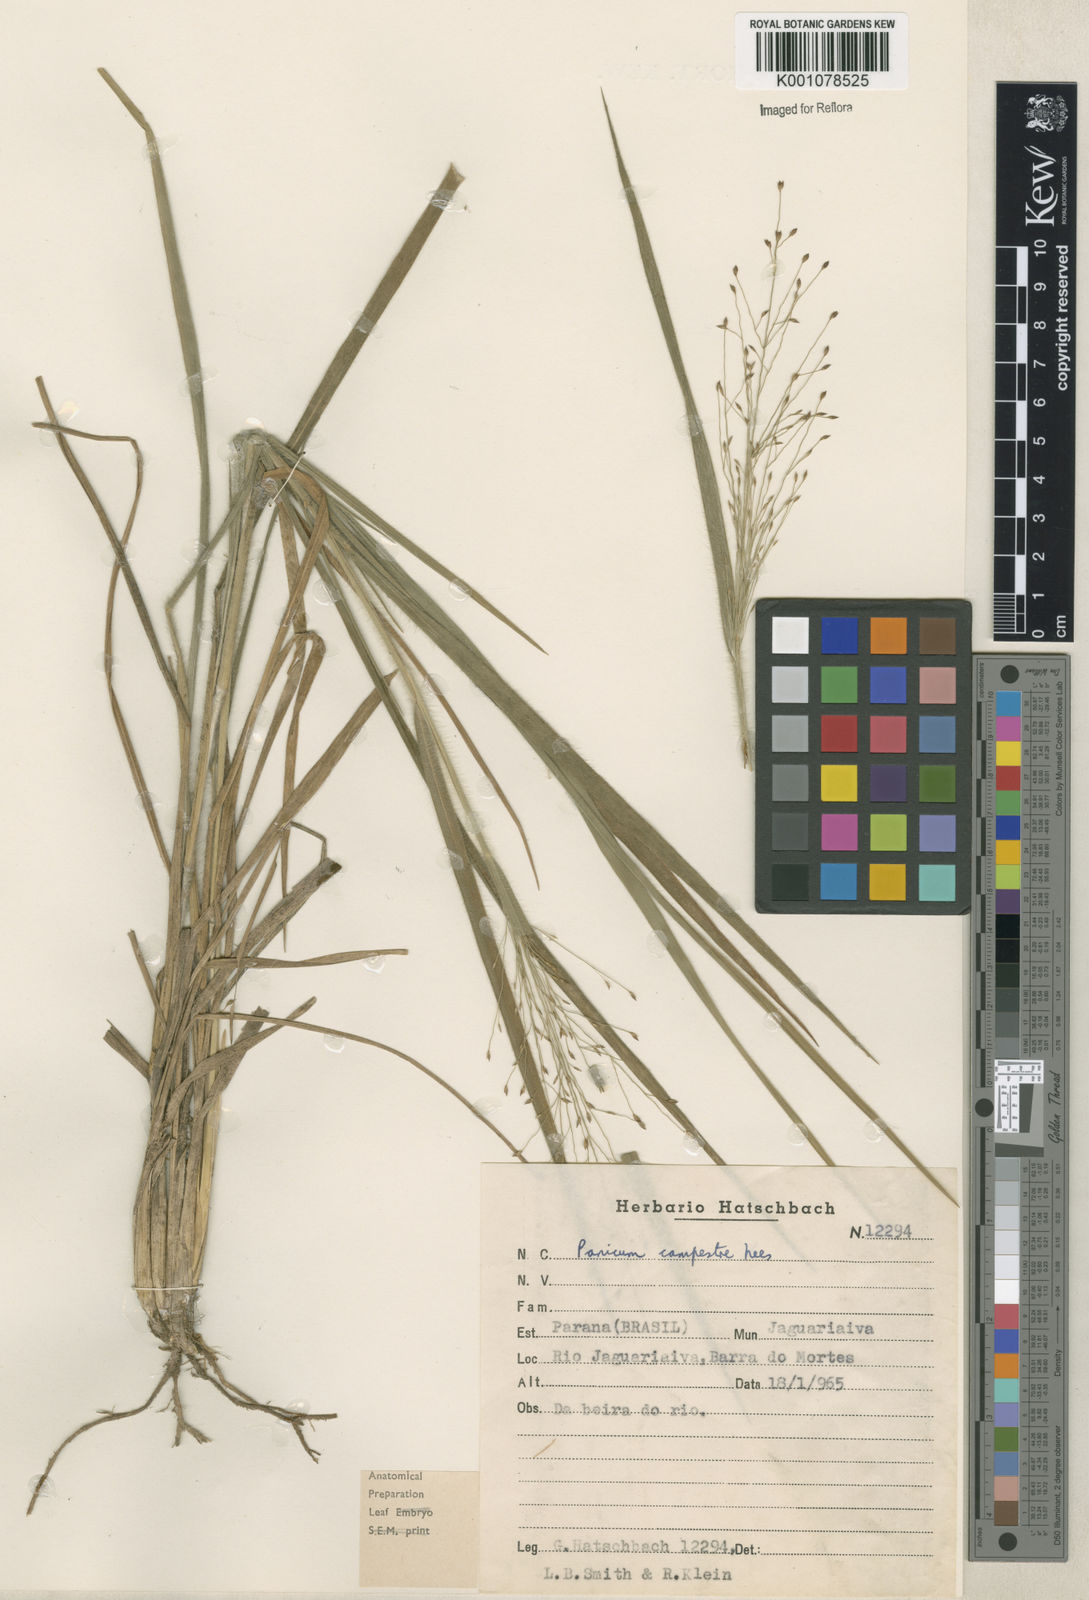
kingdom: Plantae
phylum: Tracheophyta
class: Liliopsida
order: Poales
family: Poaceae
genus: Panicum
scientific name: Panicum campestre
